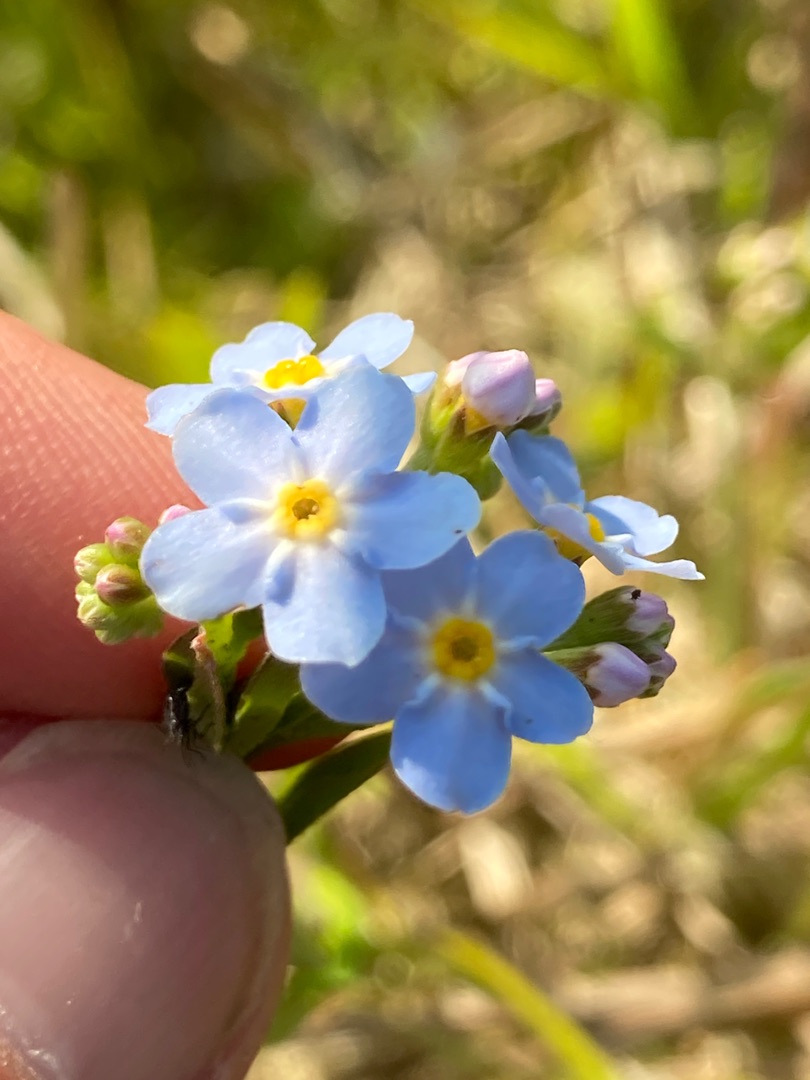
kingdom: Plantae
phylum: Tracheophyta
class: Magnoliopsida
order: Boraginales
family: Boraginaceae
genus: Myosotis
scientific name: Myosotis scorpioides
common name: Eng-forglemmigej
